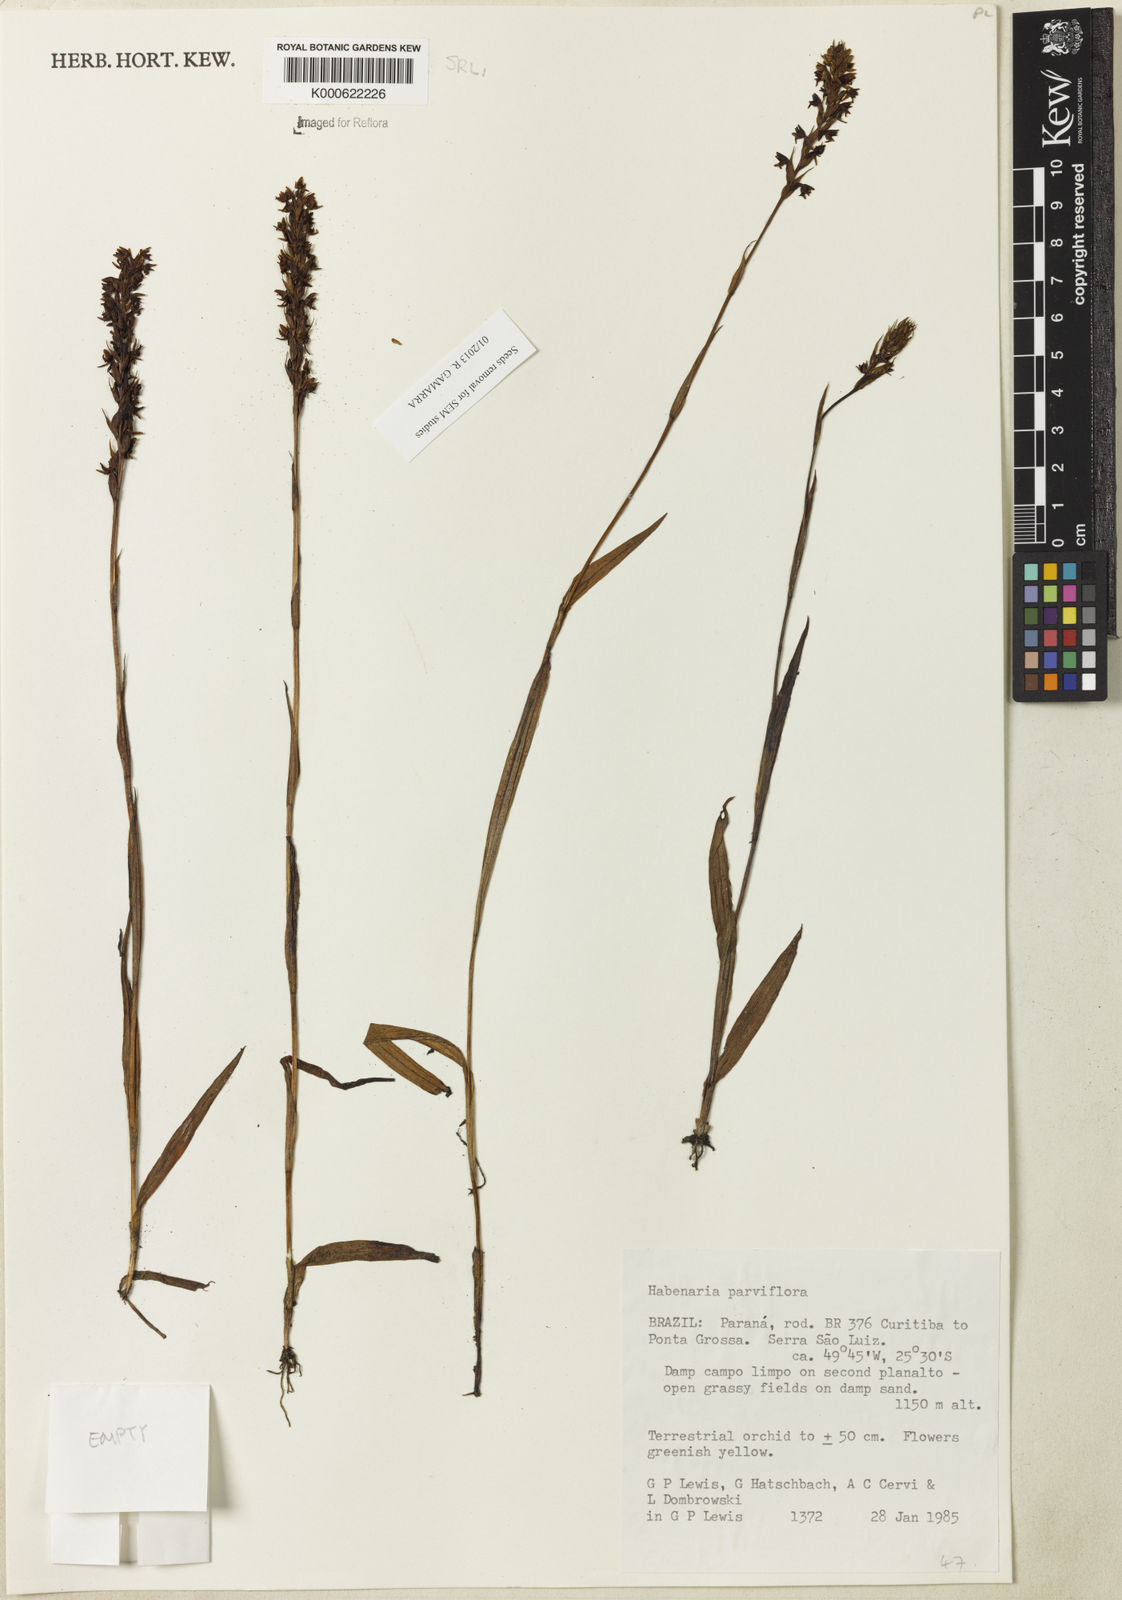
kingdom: Plantae
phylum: Tracheophyta
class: Liliopsida
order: Asparagales
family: Orchidaceae
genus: Habenaria
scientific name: Habenaria parviflora
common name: Small flowered habenaria
